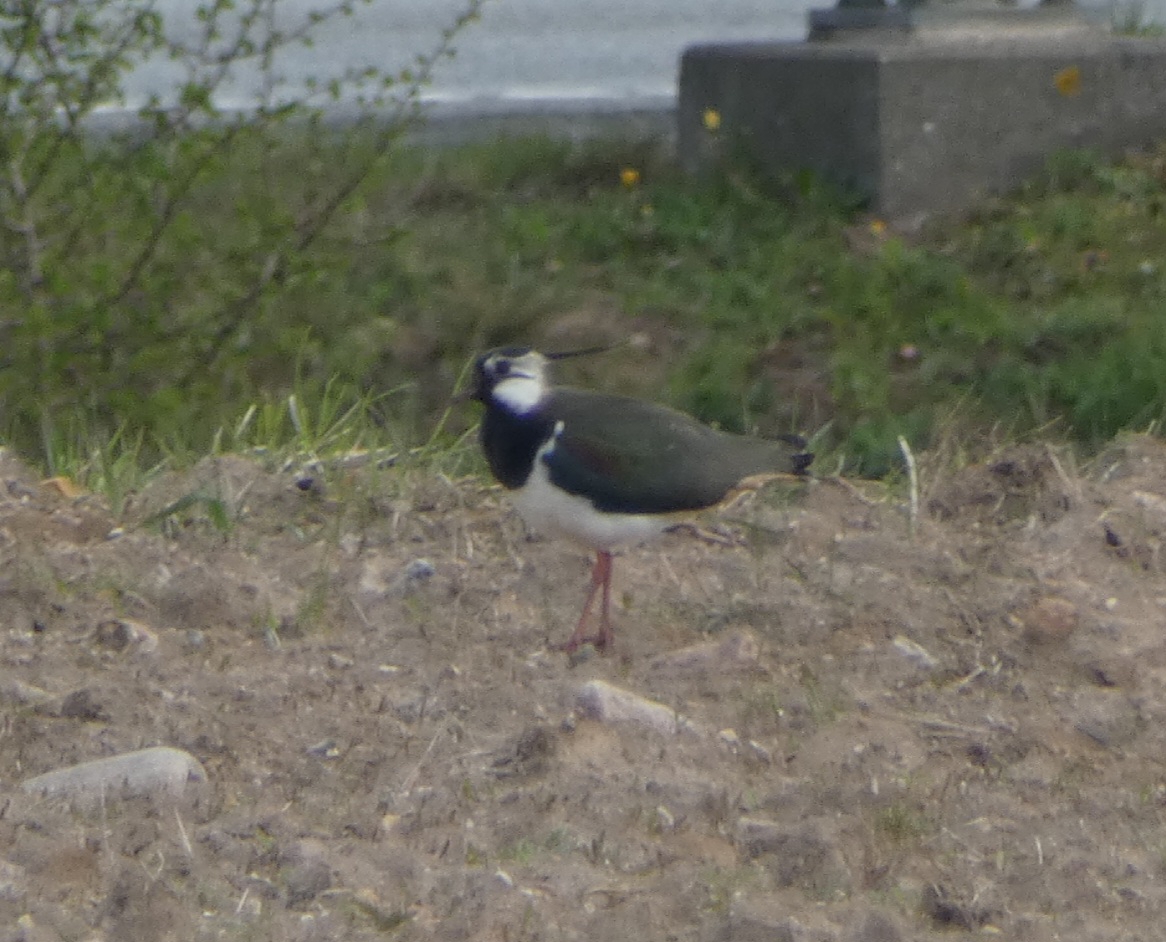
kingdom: Animalia
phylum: Chordata
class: Aves
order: Charadriiformes
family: Charadriidae
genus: Vanellus
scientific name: Vanellus vanellus
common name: Vibe
